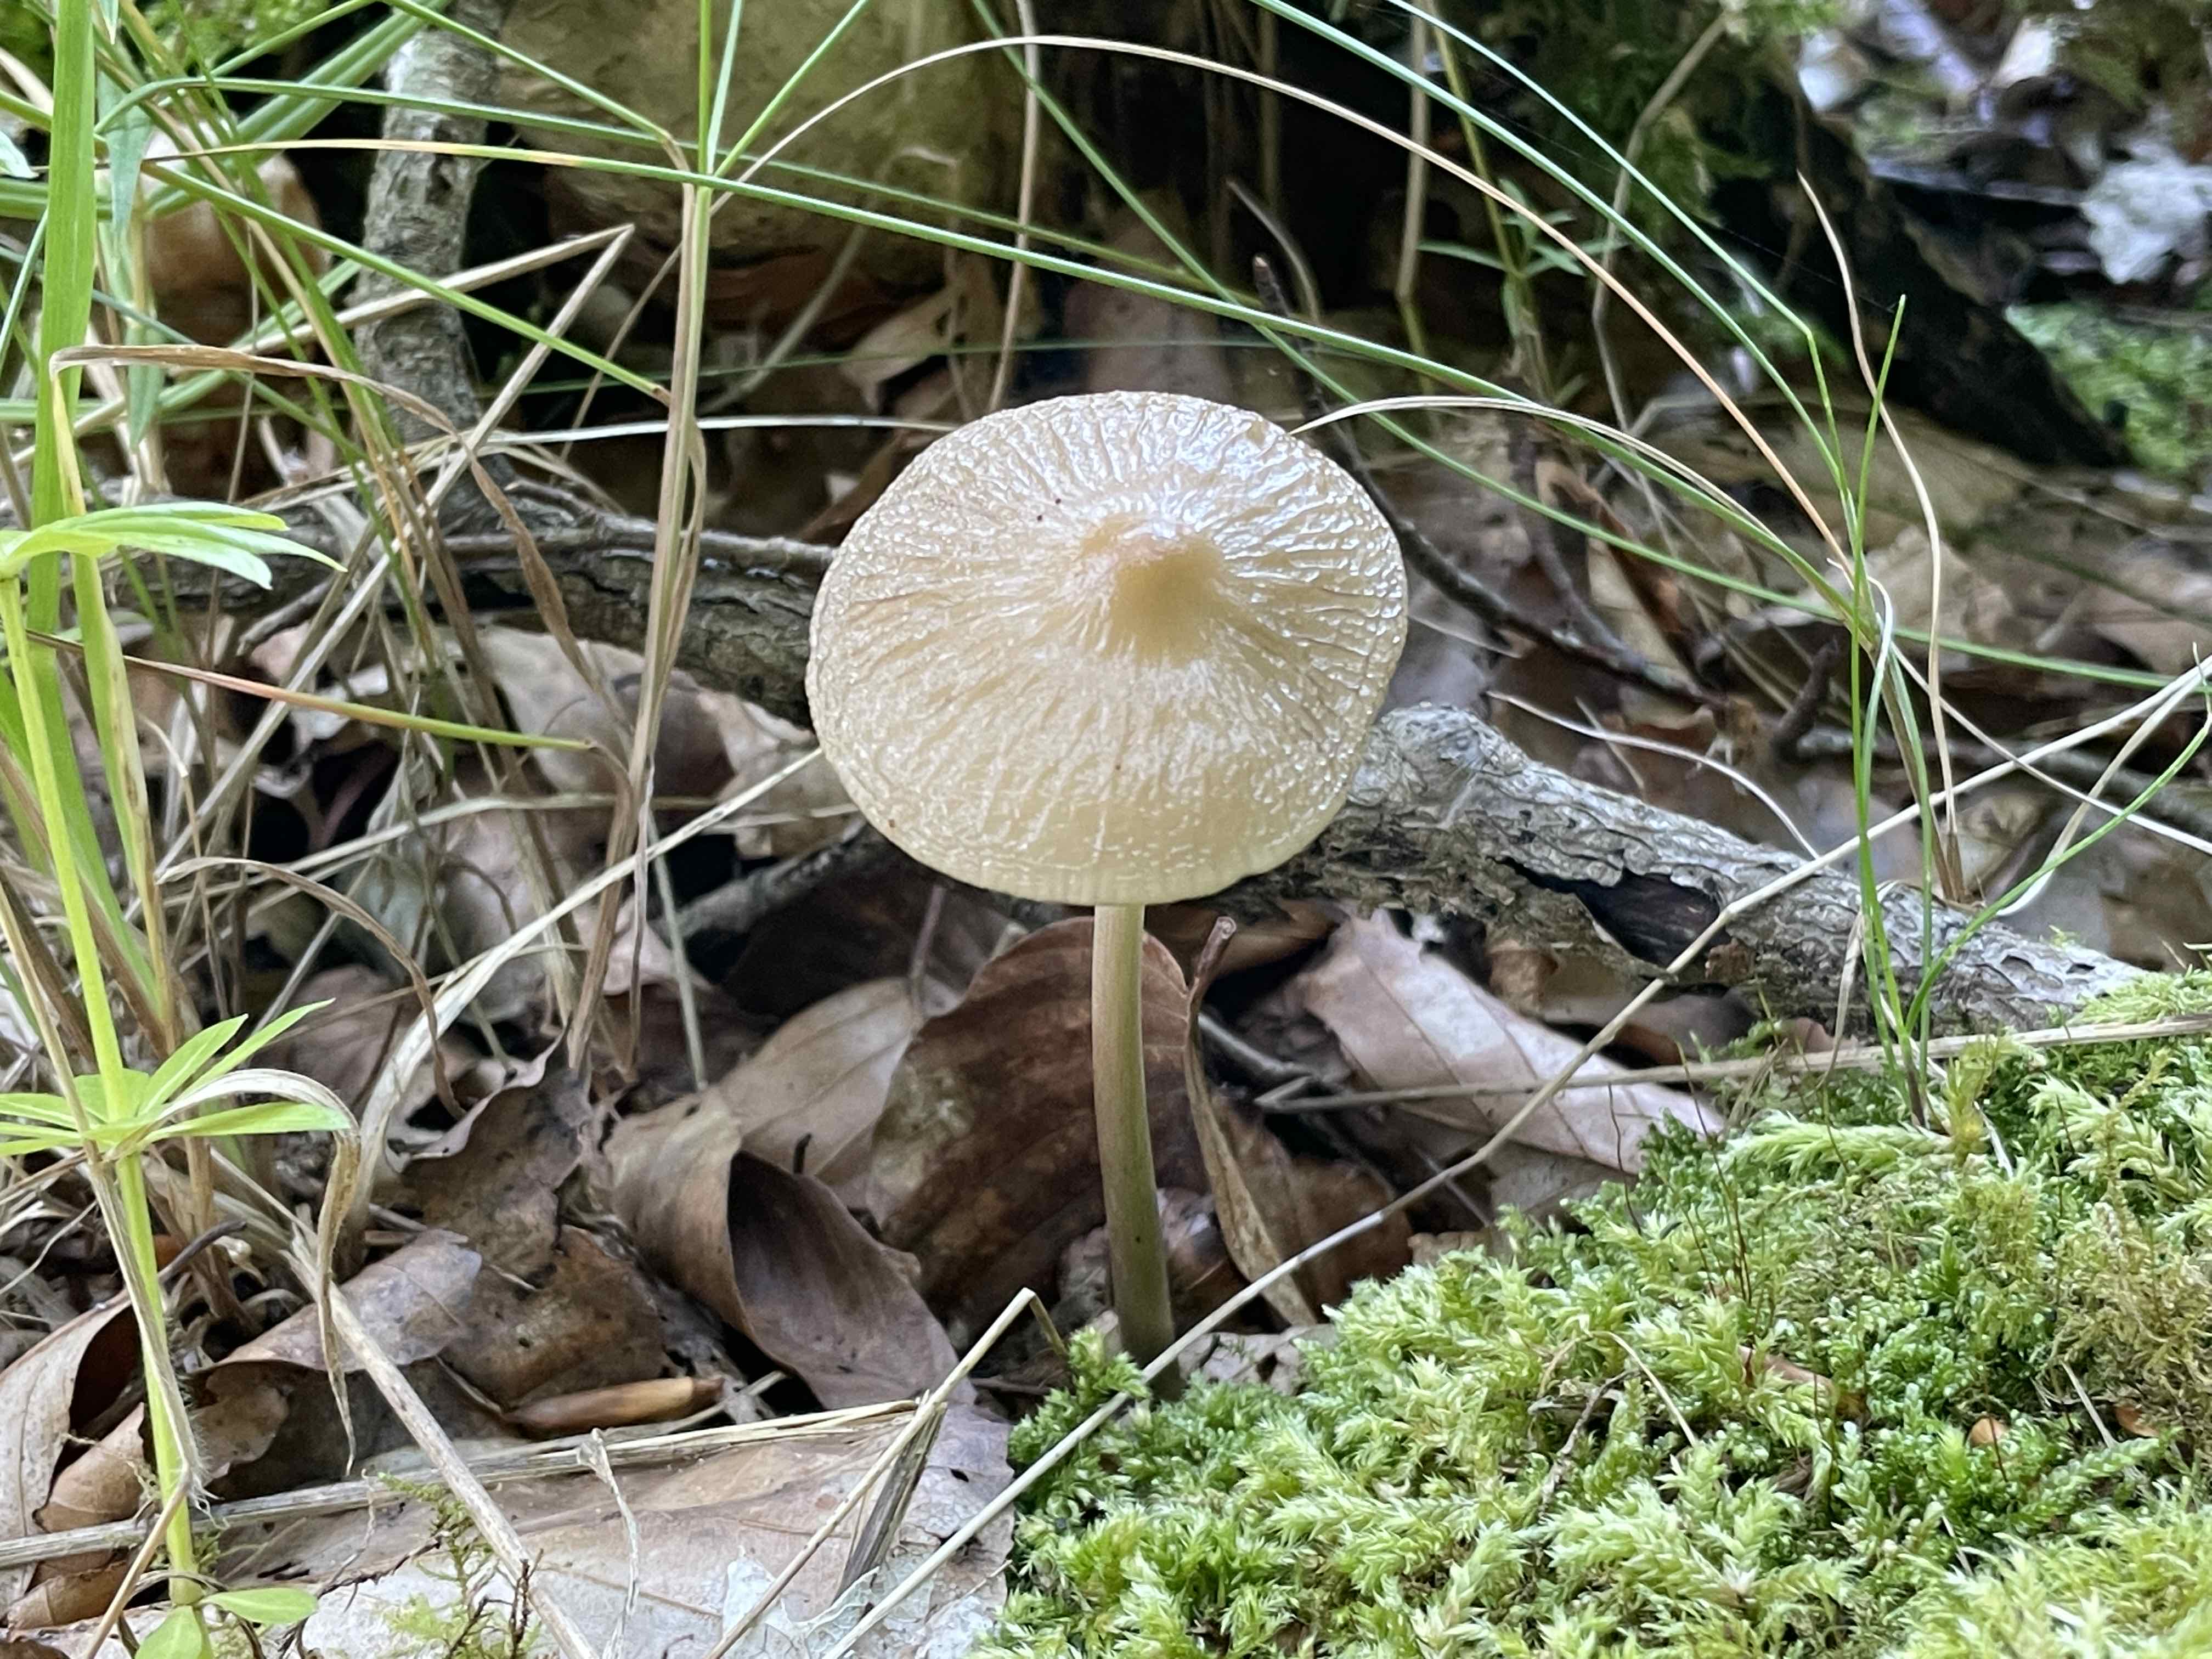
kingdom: Fungi
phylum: Basidiomycota
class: Agaricomycetes
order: Agaricales
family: Physalacriaceae
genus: Hymenopellis
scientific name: Hymenopellis radicata
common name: almindelig pælerodshat
